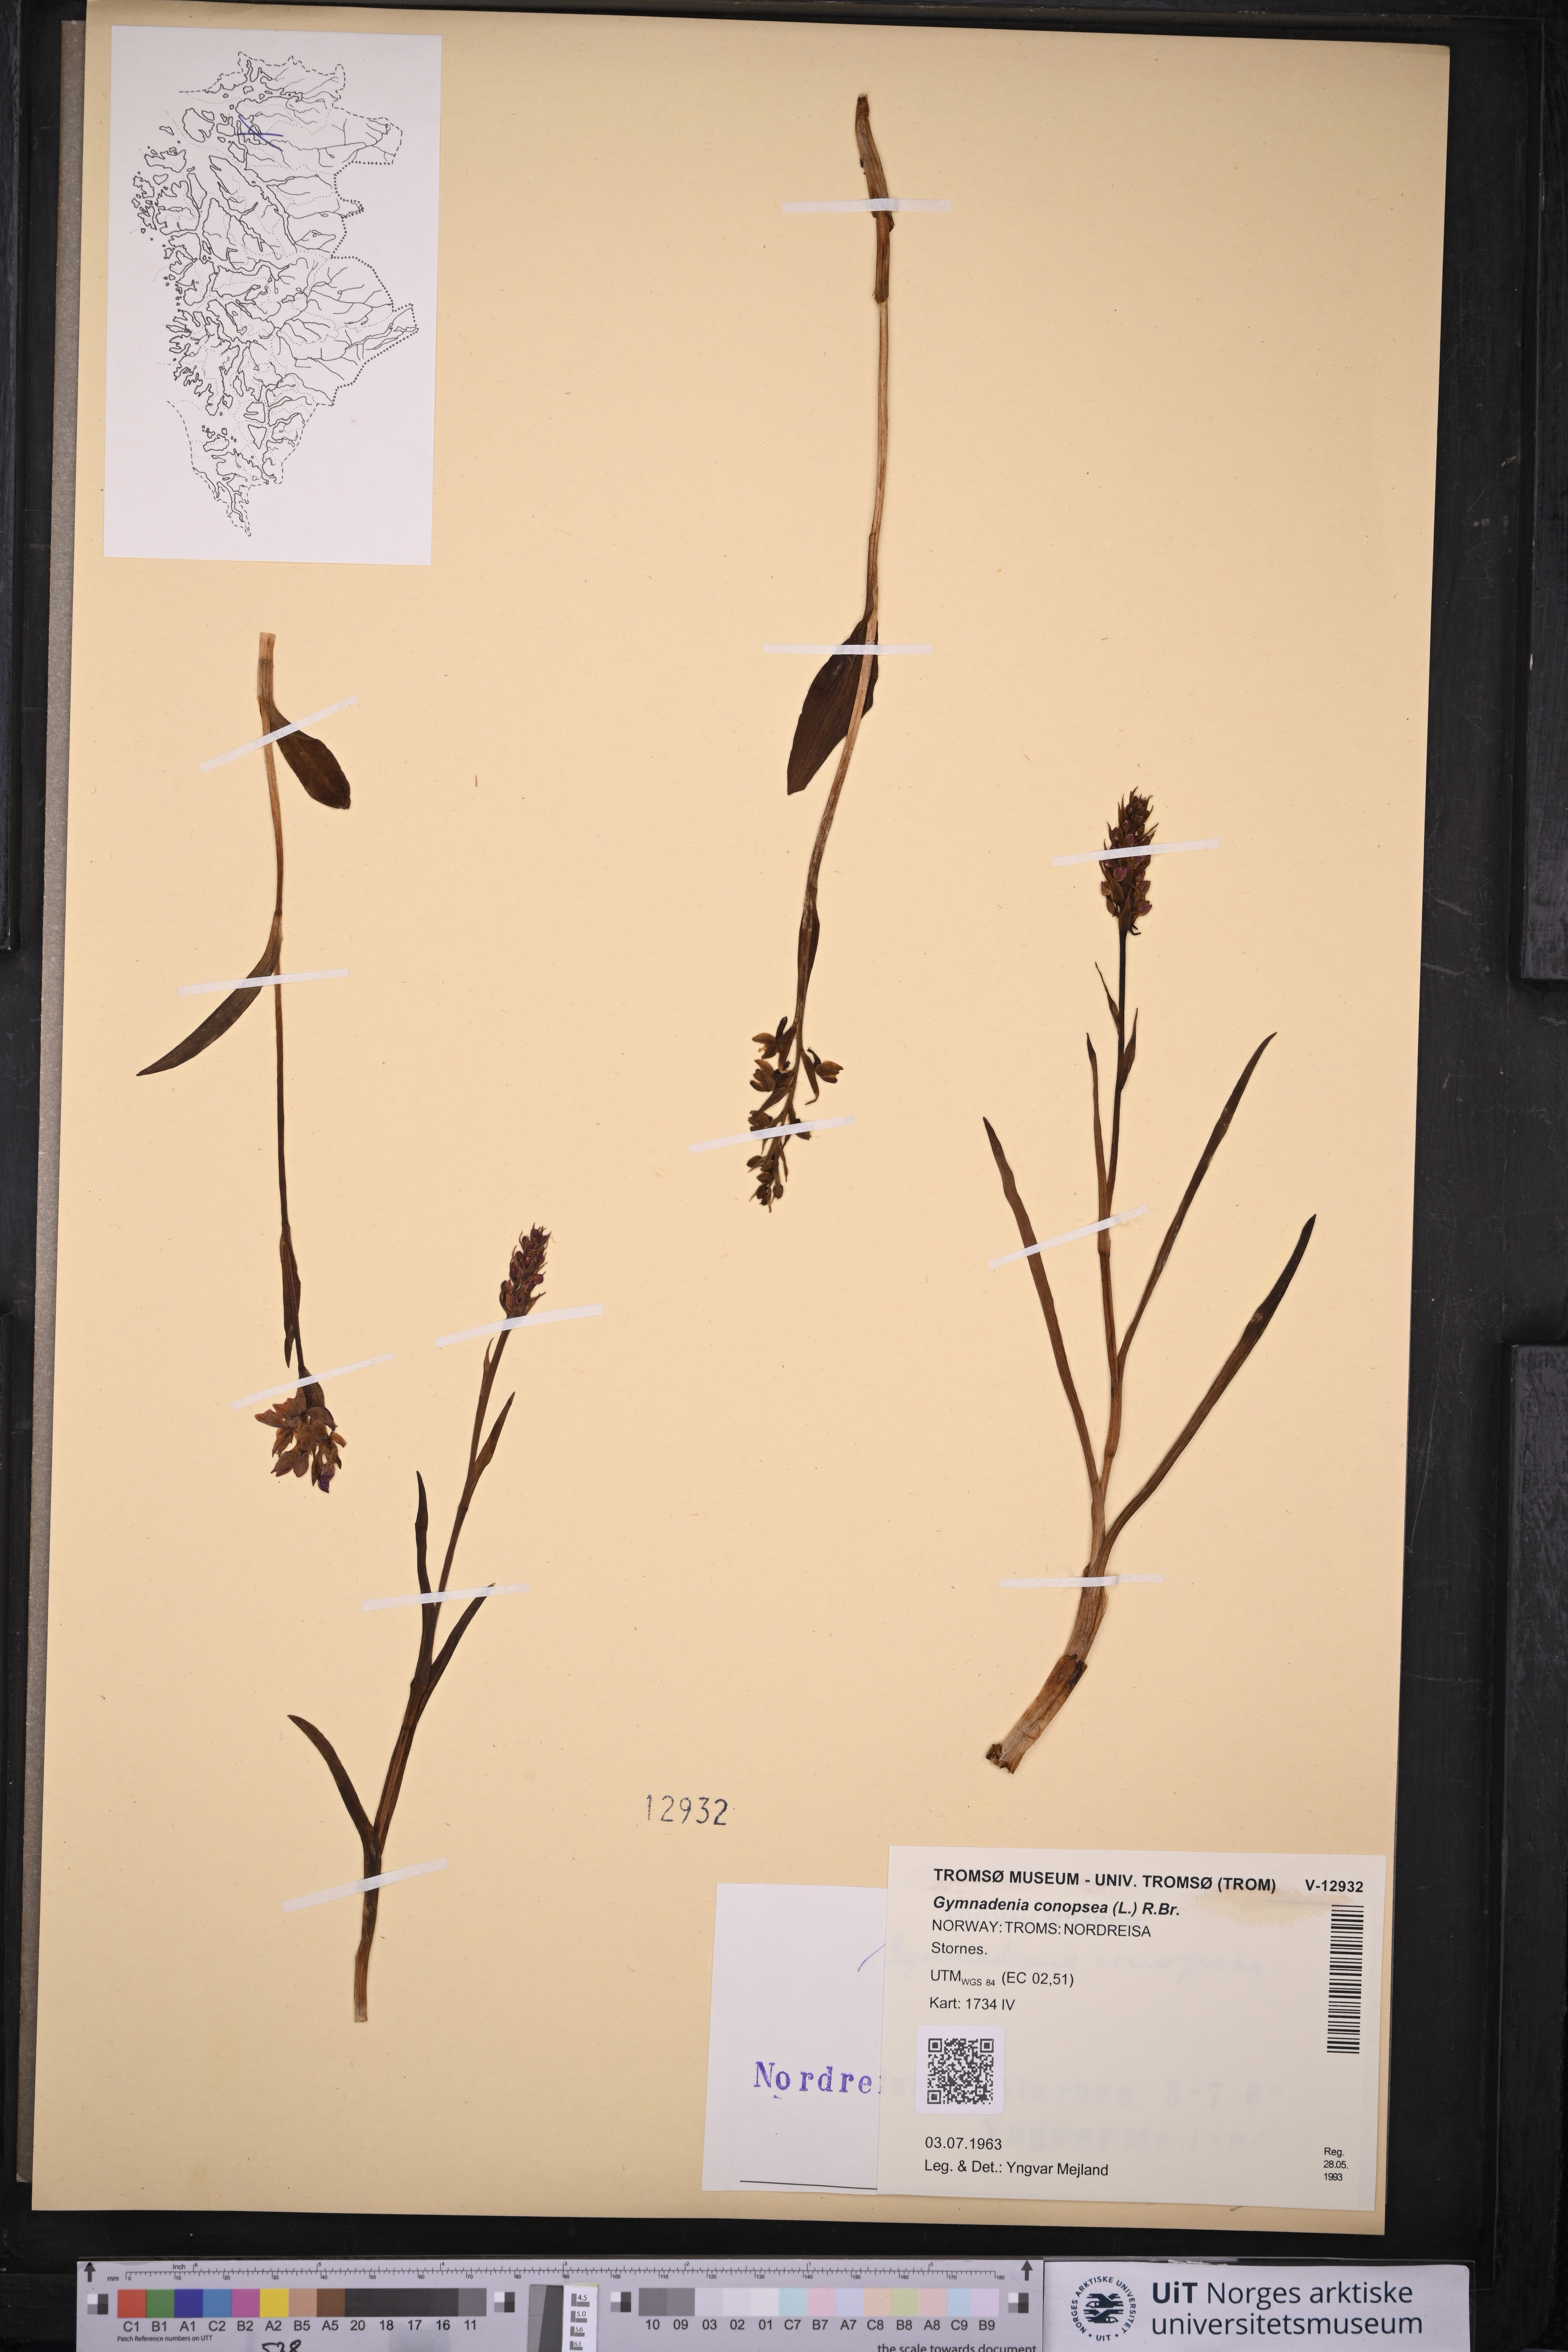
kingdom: Plantae
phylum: Tracheophyta
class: Liliopsida
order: Asparagales
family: Orchidaceae
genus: Gymnadenia
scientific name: Gymnadenia conopsea
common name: Fragrant orchid
